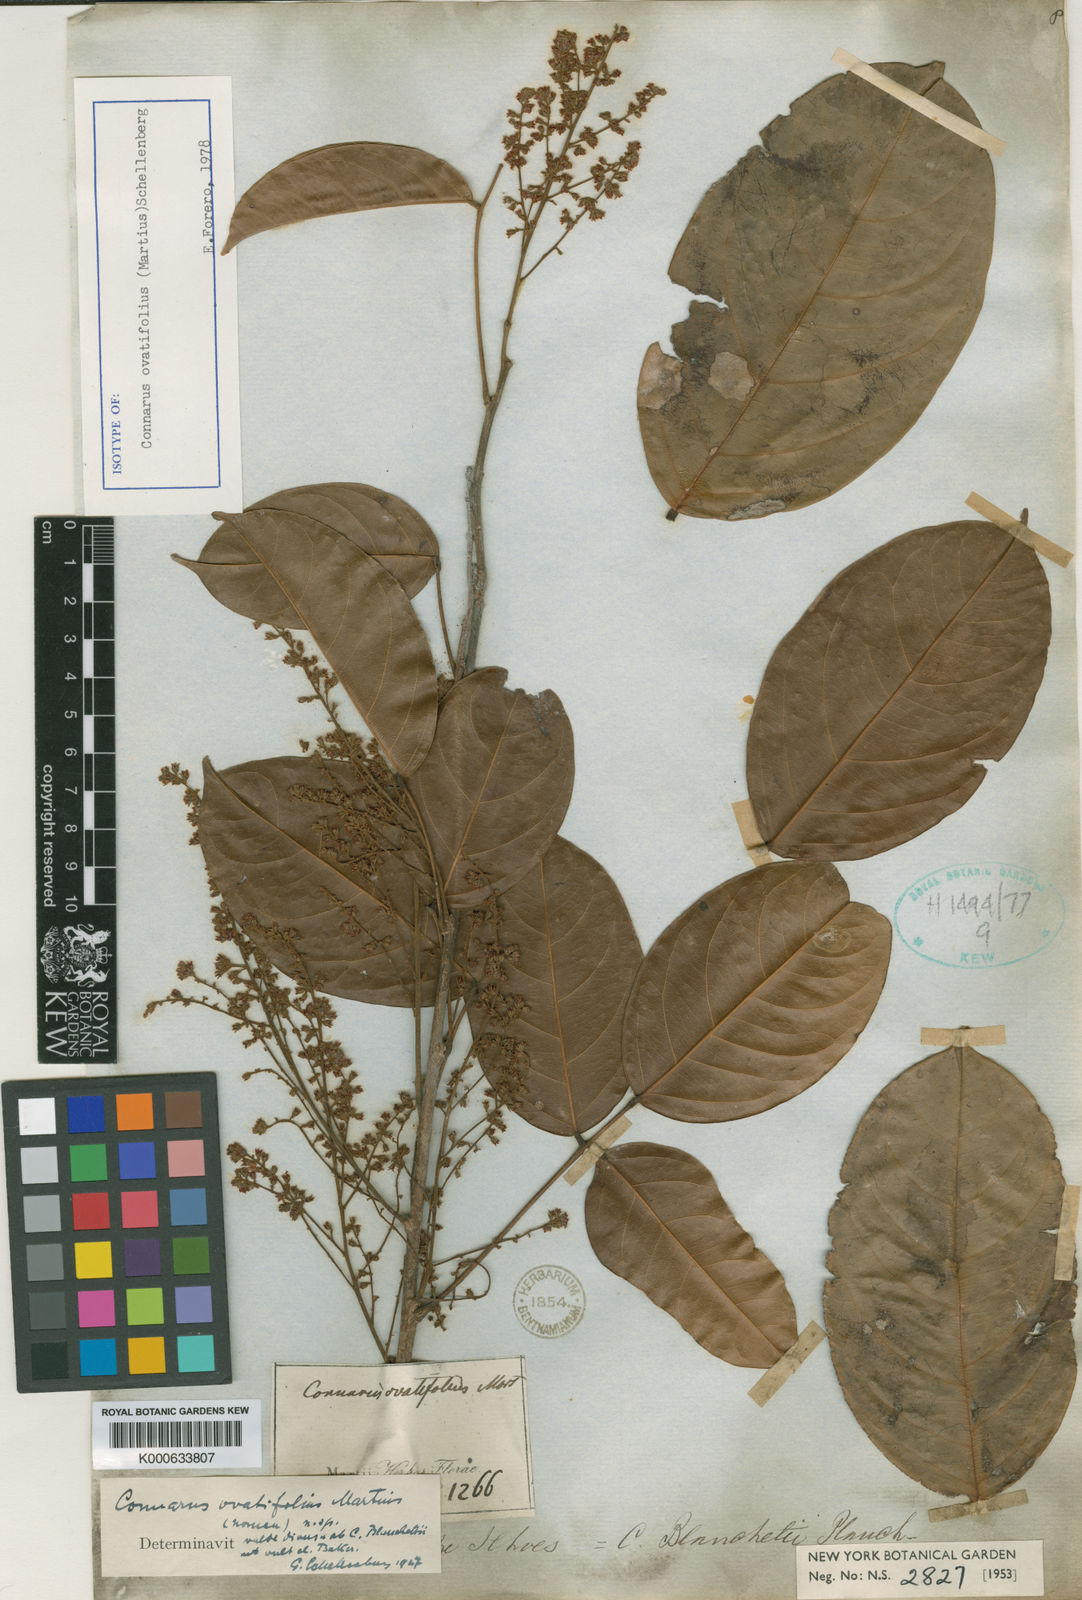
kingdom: Plantae
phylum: Tracheophyta
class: Magnoliopsida
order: Oxalidales
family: Connaraceae
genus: Connarus
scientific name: Connarus ovatifolius
